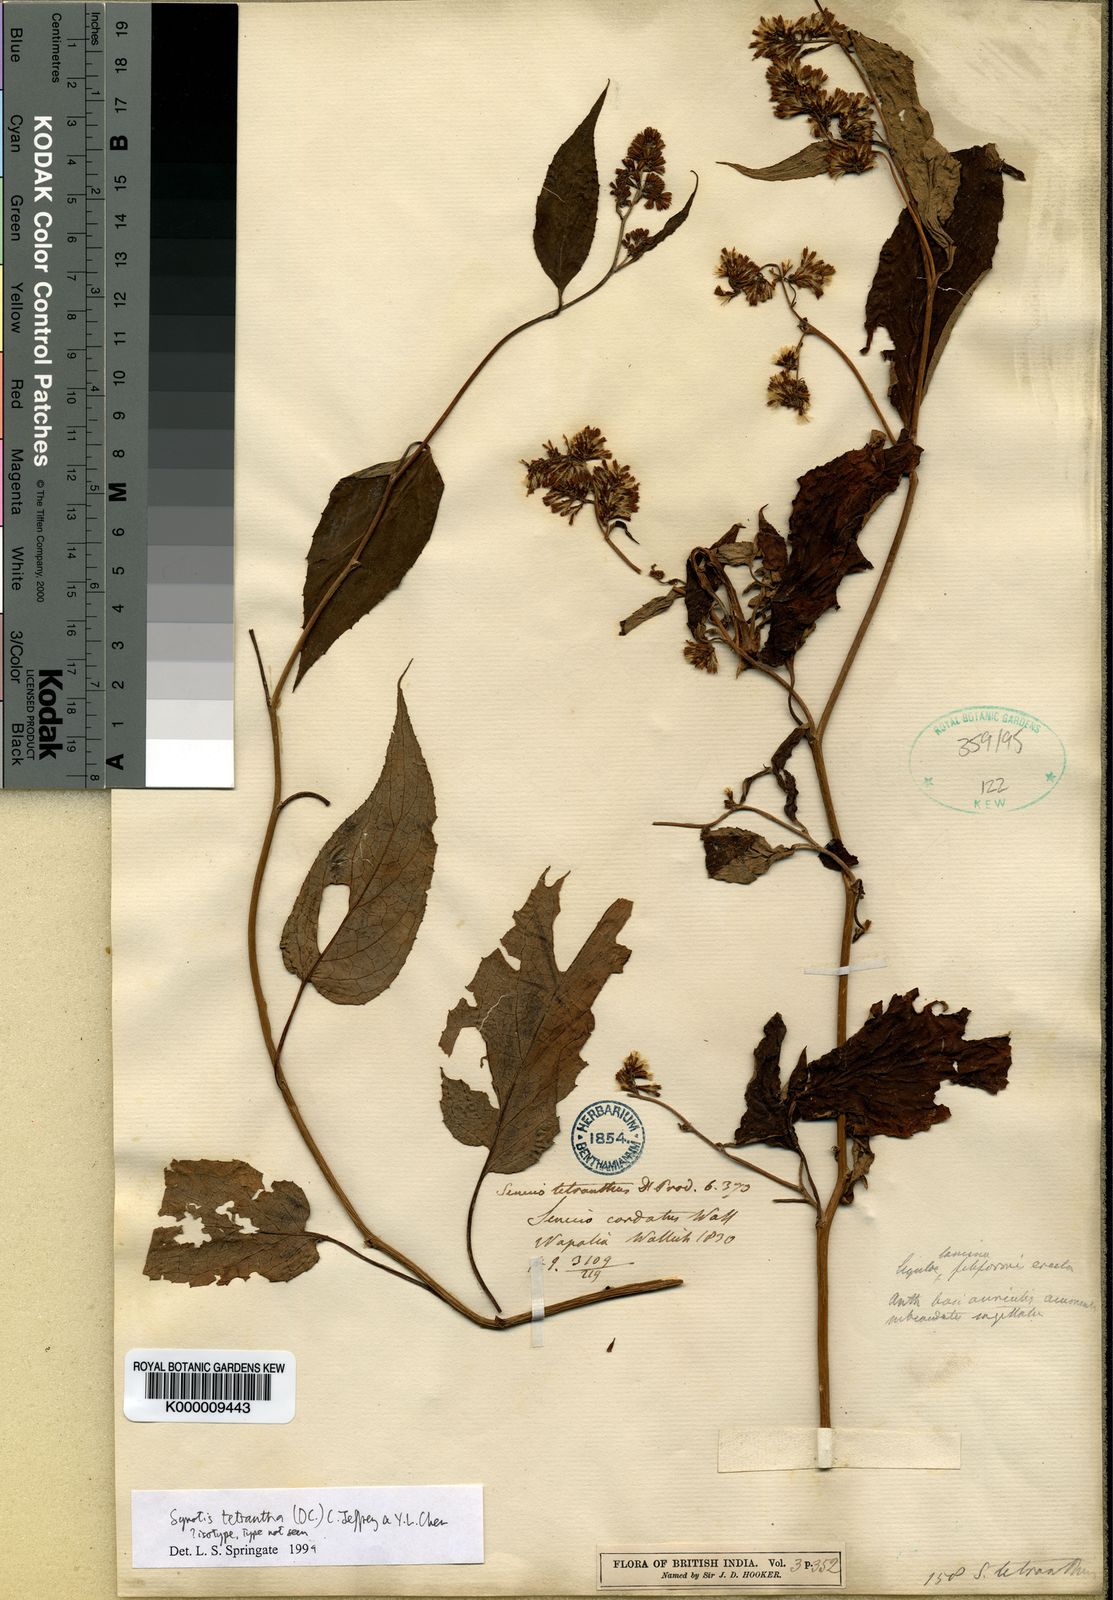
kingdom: Plantae
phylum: Tracheophyta
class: Magnoliopsida
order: Asterales
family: Asteraceae
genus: Synotis
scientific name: Synotis tetrantha
